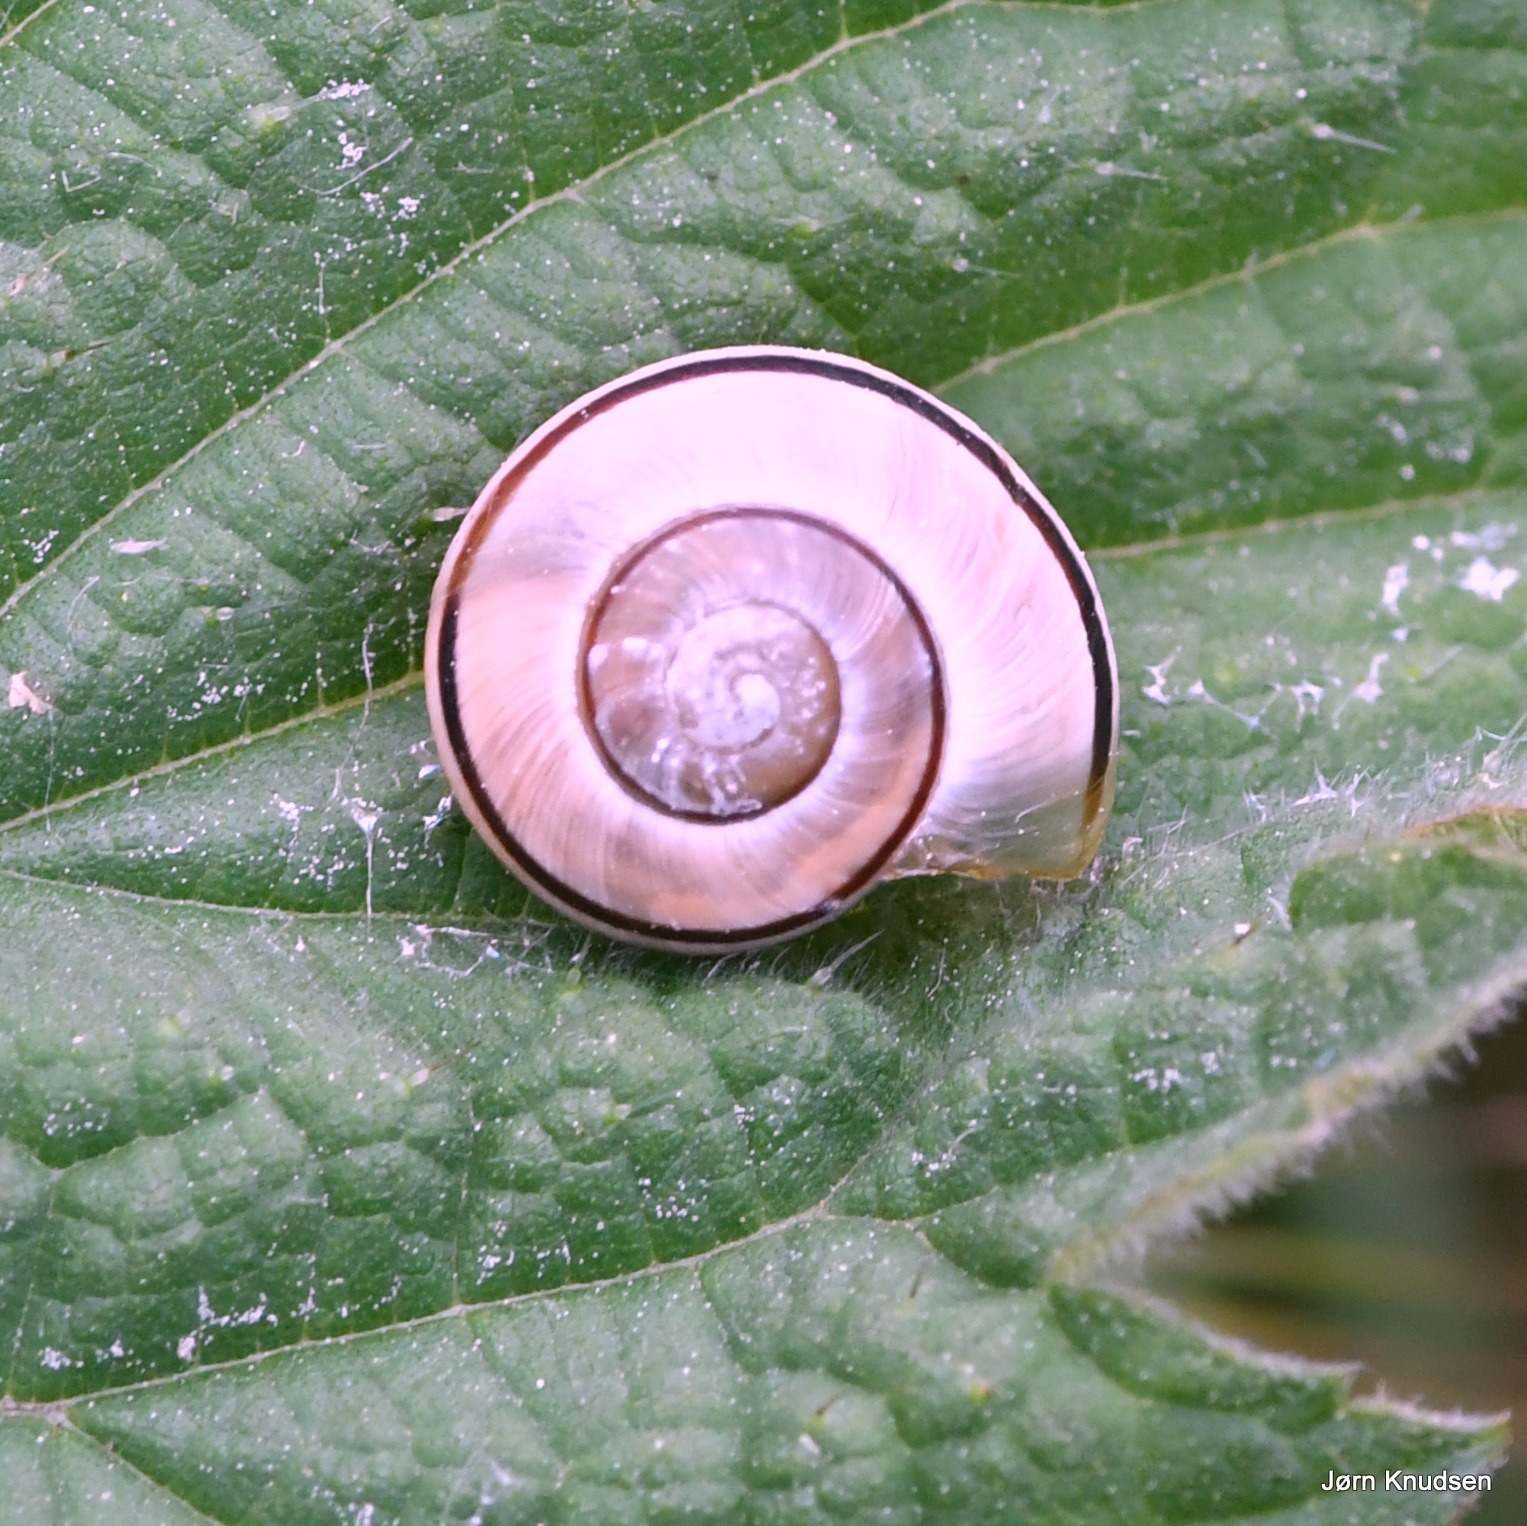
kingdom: Animalia
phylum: Mollusca
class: Gastropoda
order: Stylommatophora
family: Helicidae
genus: Cepaea
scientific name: Cepaea hortensis
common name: Havesnegl
